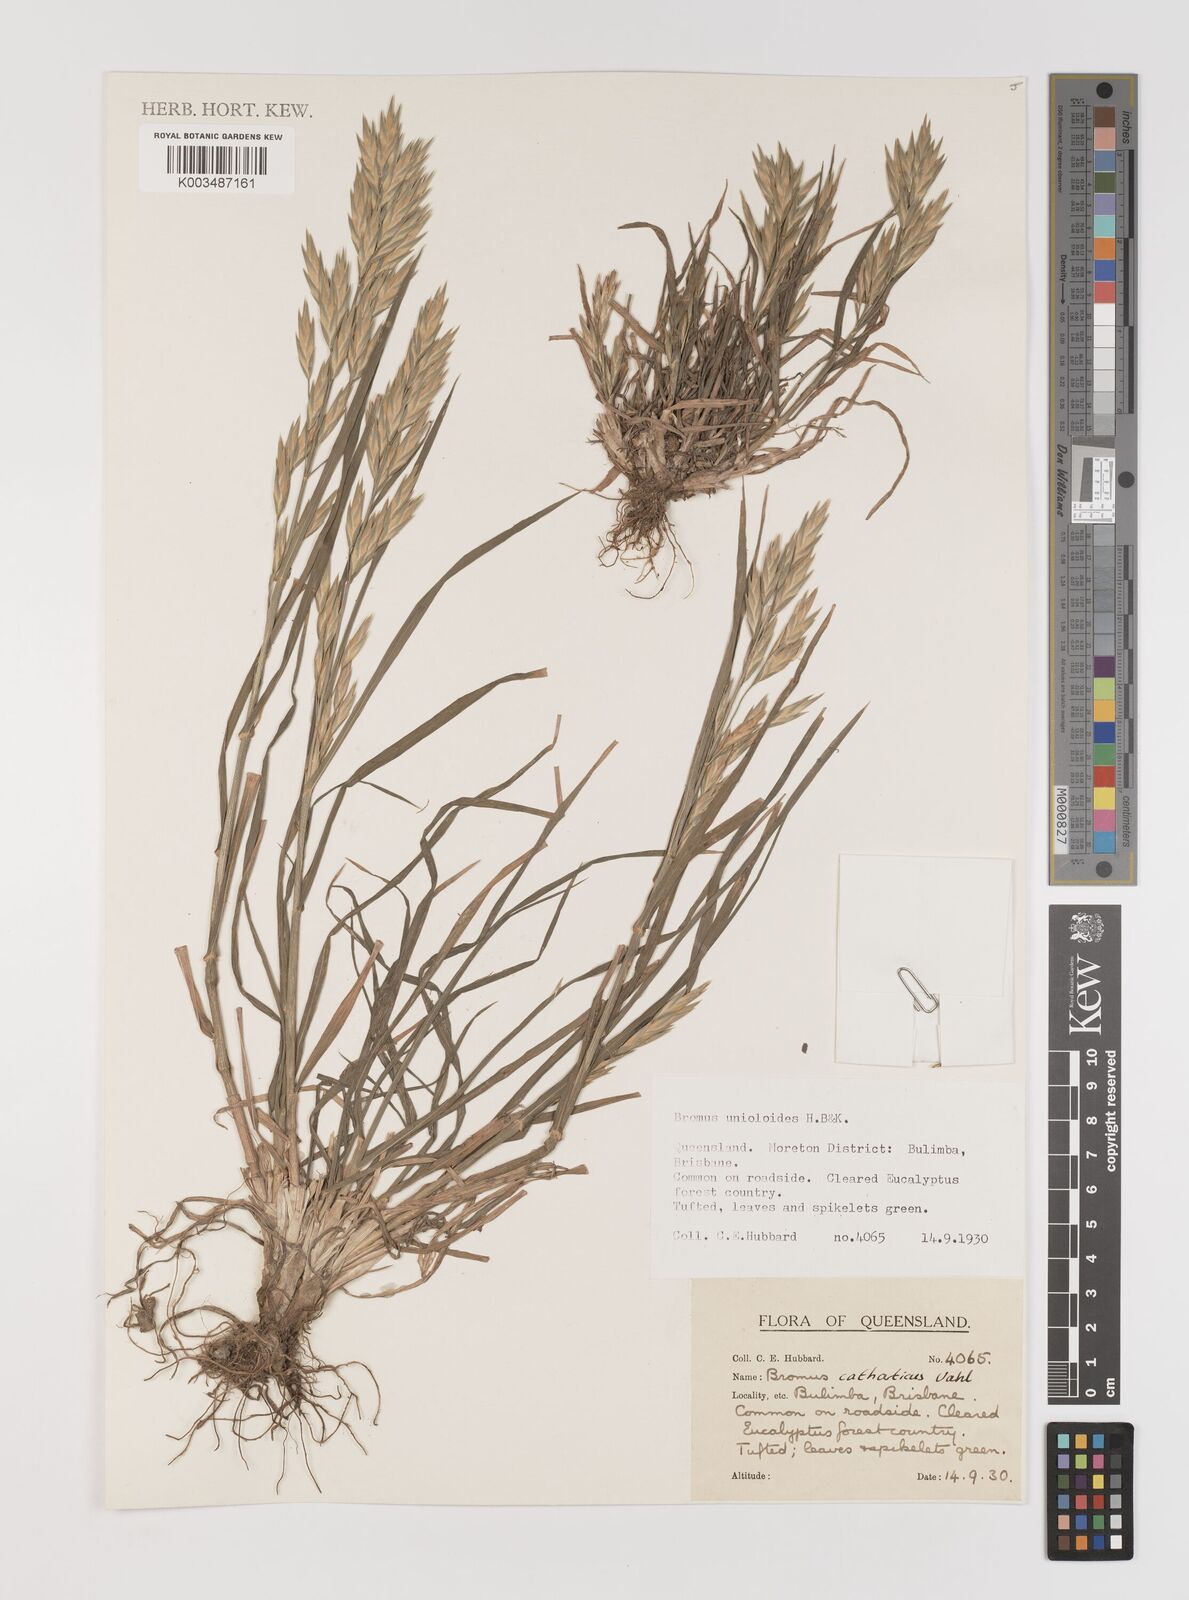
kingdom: Plantae
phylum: Tracheophyta
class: Liliopsida
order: Poales
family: Poaceae
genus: Bromus
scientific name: Bromus catharticus
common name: Rescuegrass
